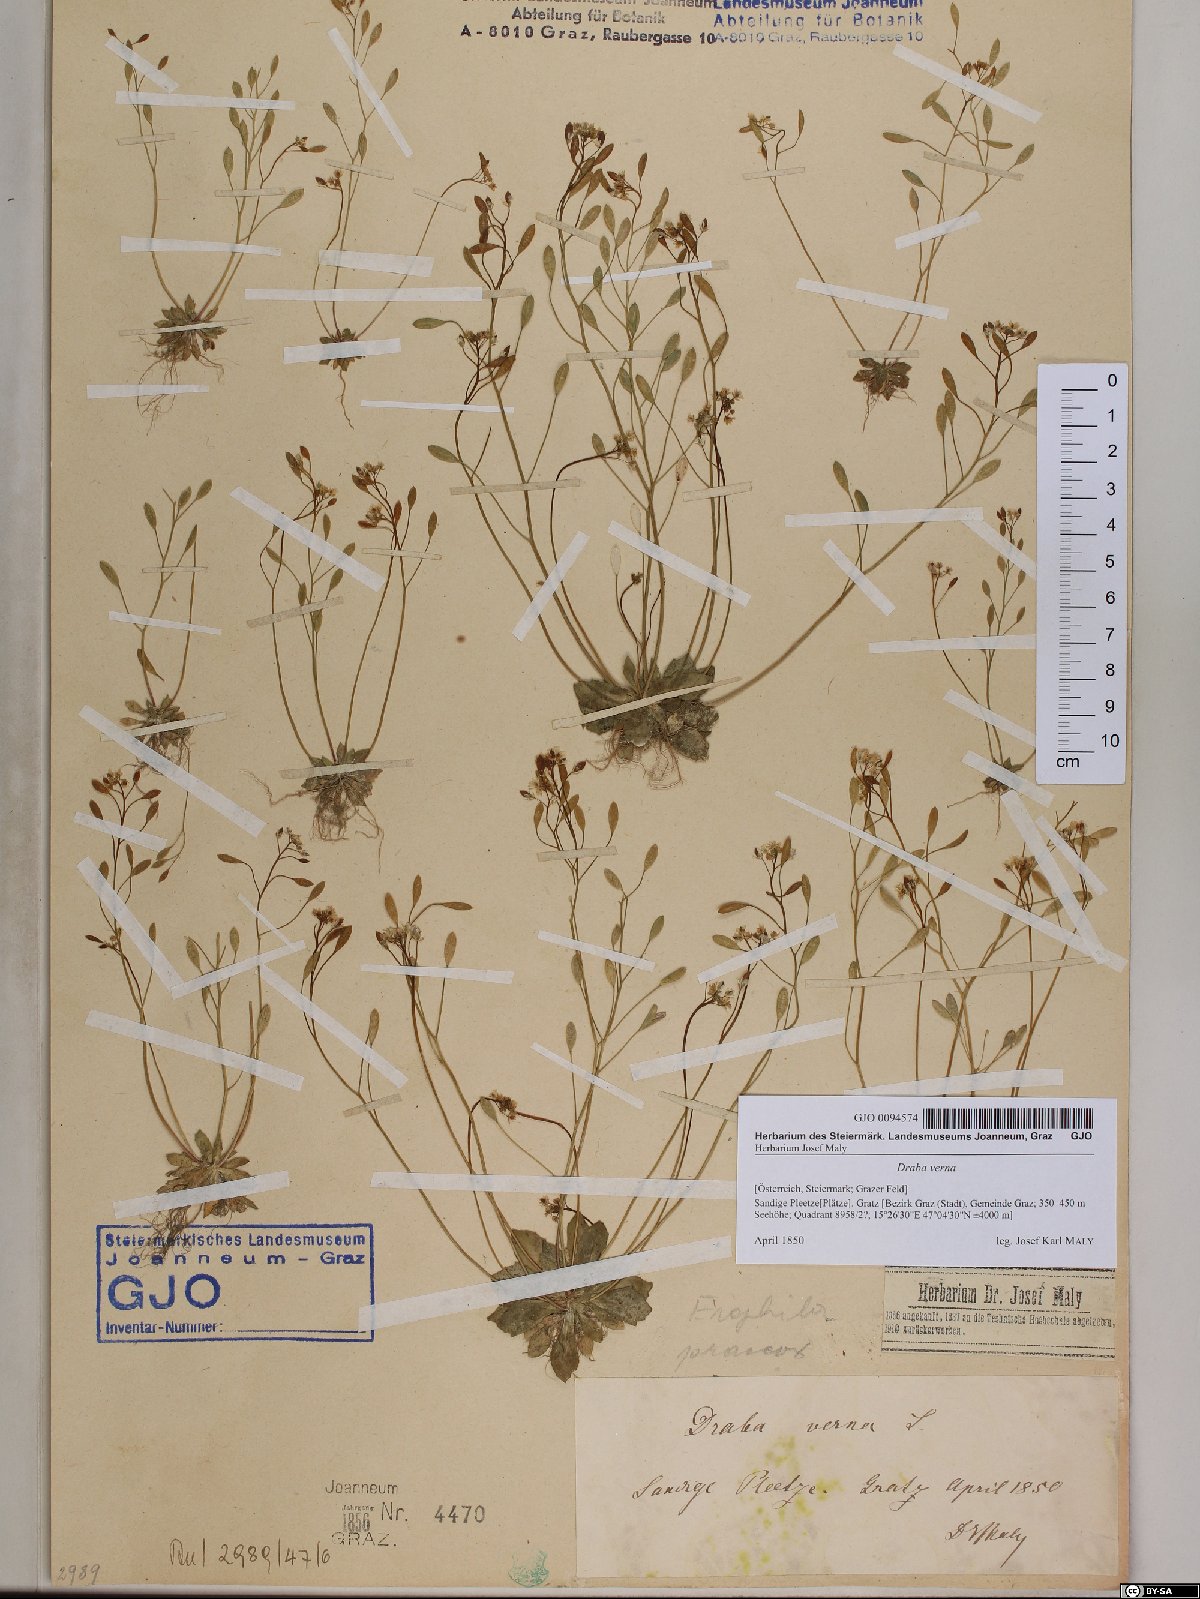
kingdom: Plantae
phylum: Tracheophyta
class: Magnoliopsida
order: Brassicales
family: Brassicaceae
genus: Draba
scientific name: Draba verna
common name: Spring draba
